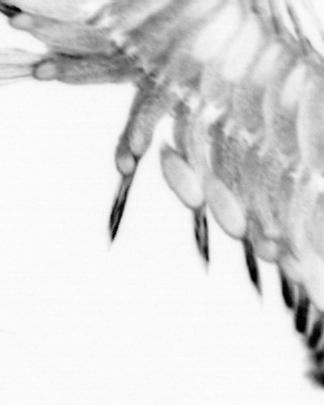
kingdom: Animalia
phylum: Chordata
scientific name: Chordata
